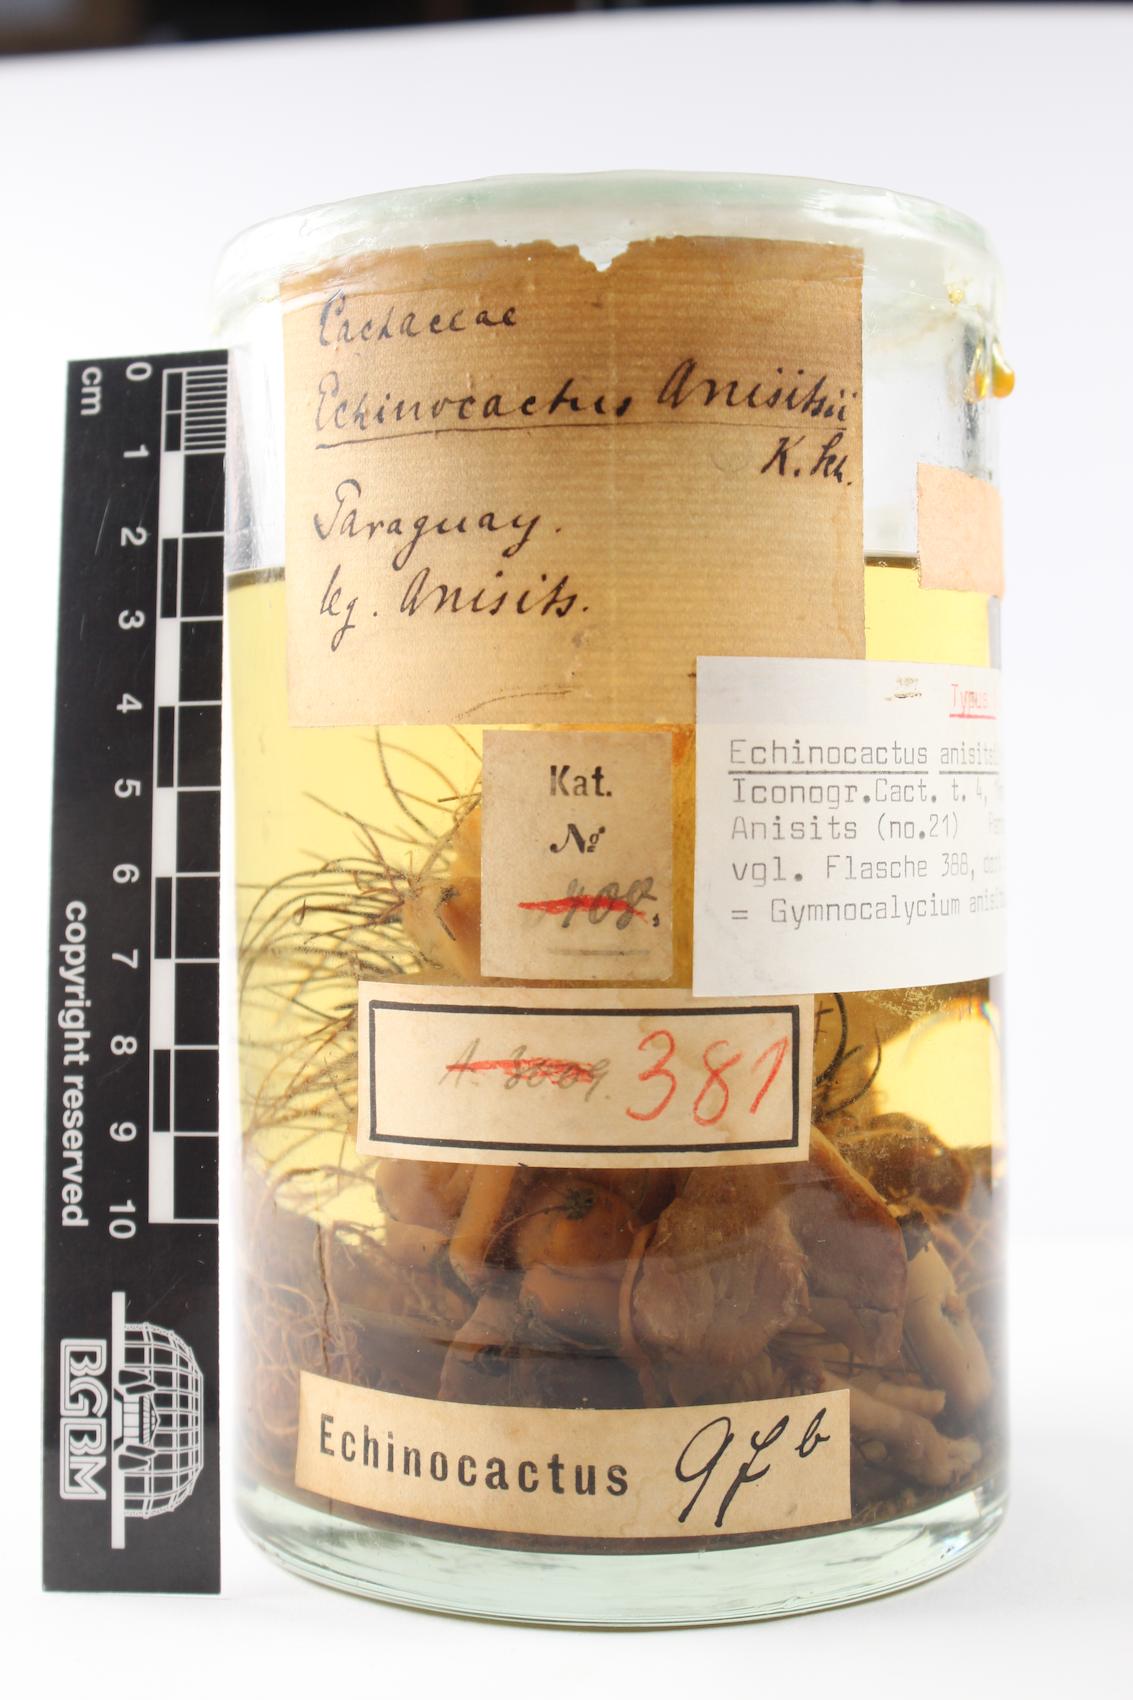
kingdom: Plantae
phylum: Tracheophyta
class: Magnoliopsida
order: Caryophyllales
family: Cactaceae
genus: Gymnocalycium
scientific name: Gymnocalycium anisitsii
